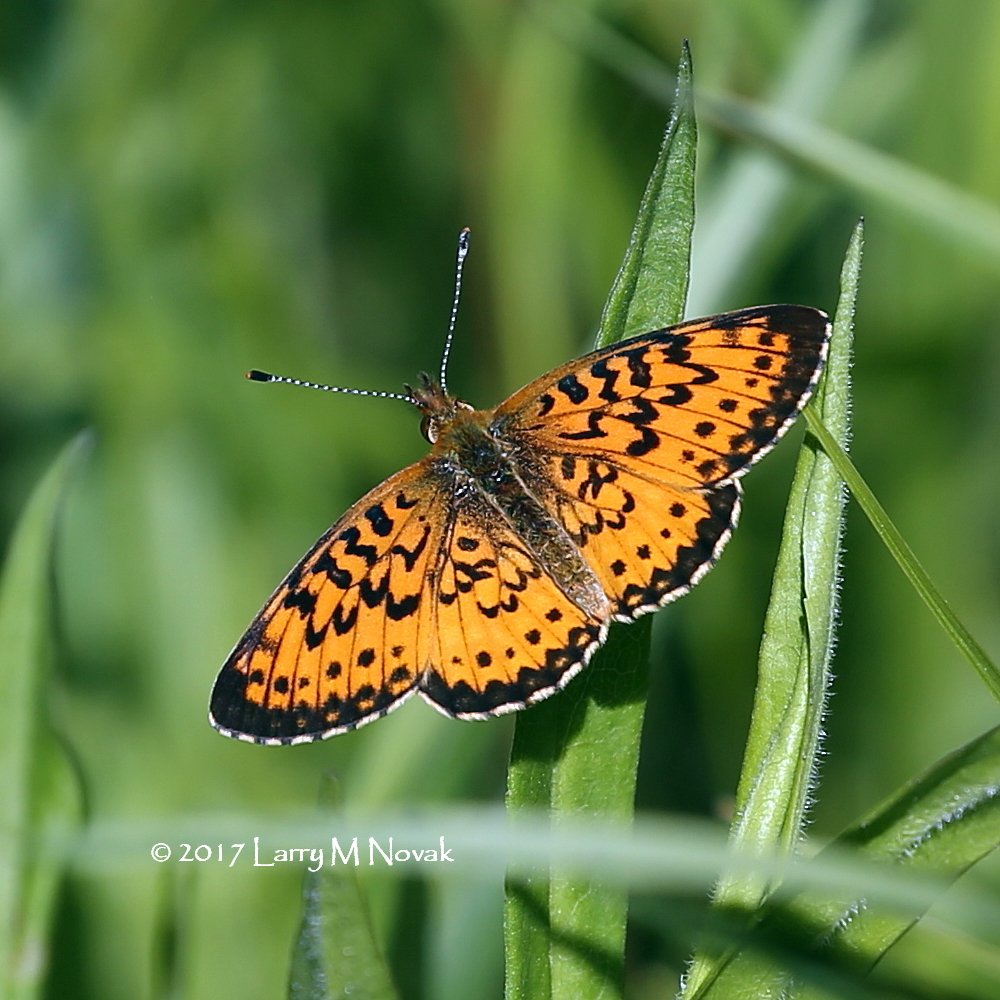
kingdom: Animalia
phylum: Arthropoda
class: Insecta
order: Lepidoptera
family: Nymphalidae
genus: Boloria
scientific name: Boloria selene
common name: Silver-bordered Fritillary
